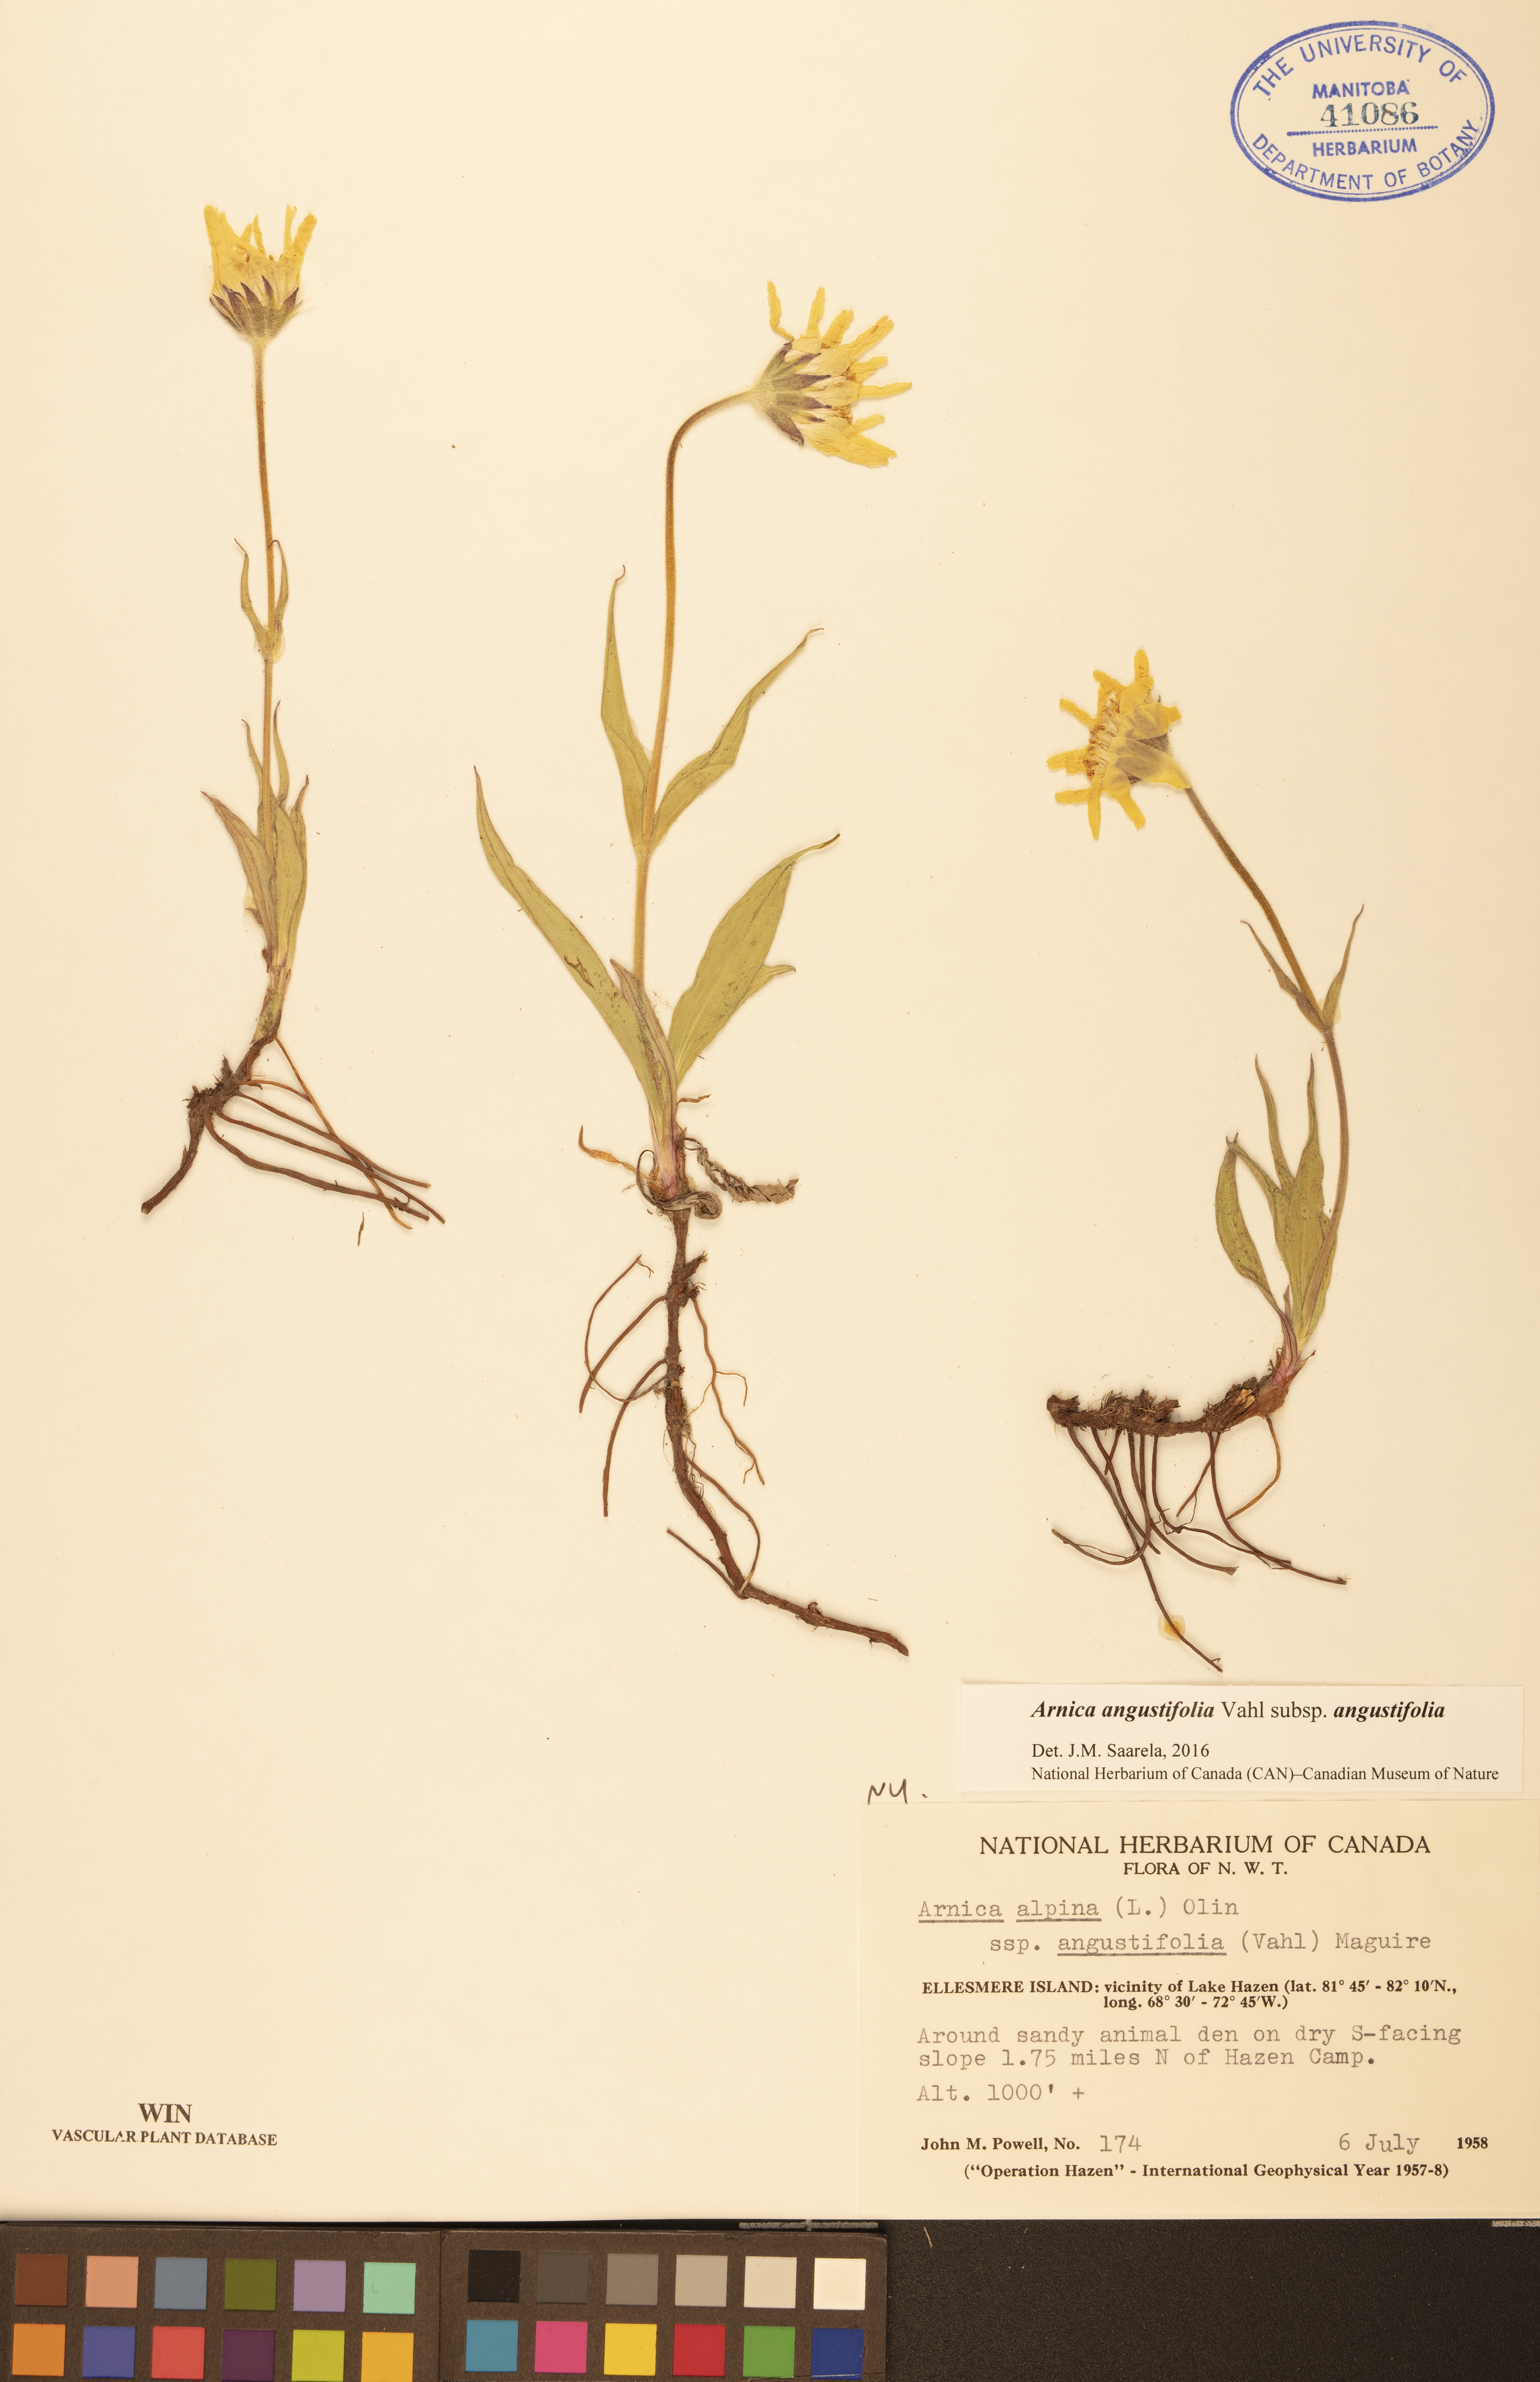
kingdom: Plantae
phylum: Tracheophyta
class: Magnoliopsida
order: Asterales
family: Asteraceae
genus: Arnica
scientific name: Arnica angustifolia
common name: Arctic arnica
